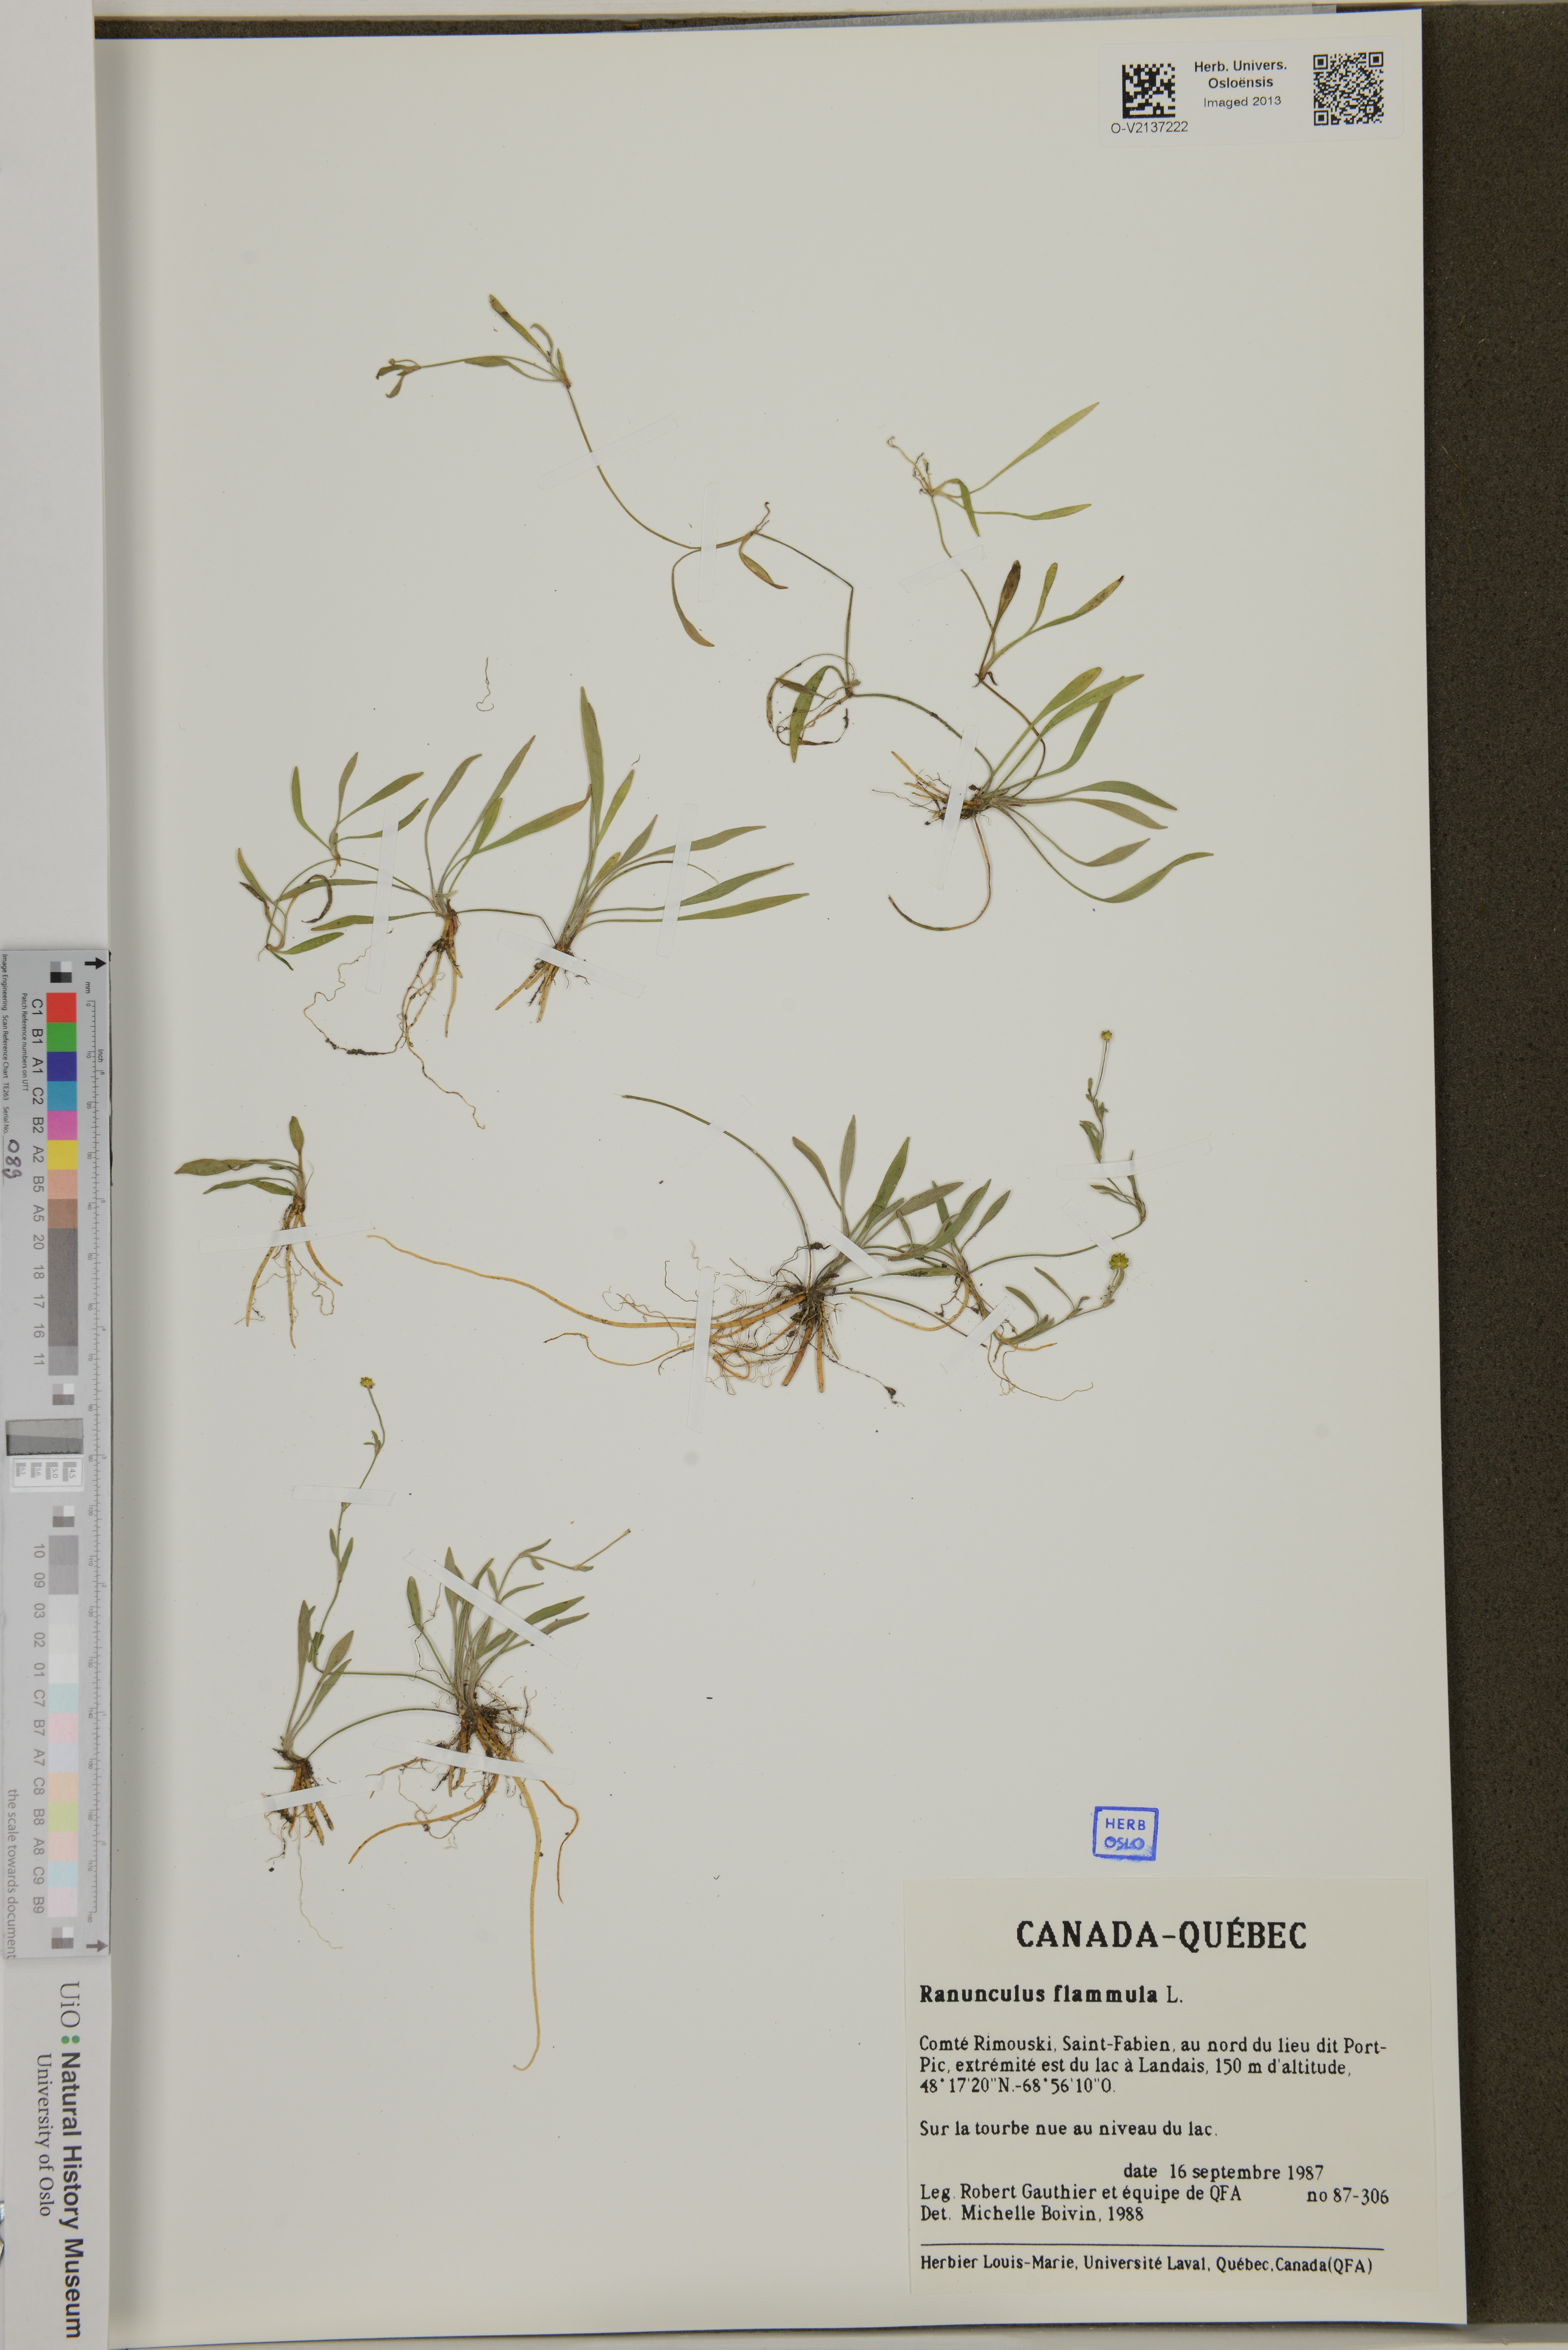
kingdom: Plantae
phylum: Tracheophyta
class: Magnoliopsida
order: Ranunculales
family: Ranunculaceae
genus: Ranunculus
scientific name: Ranunculus flammula
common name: Lesser spearwort
